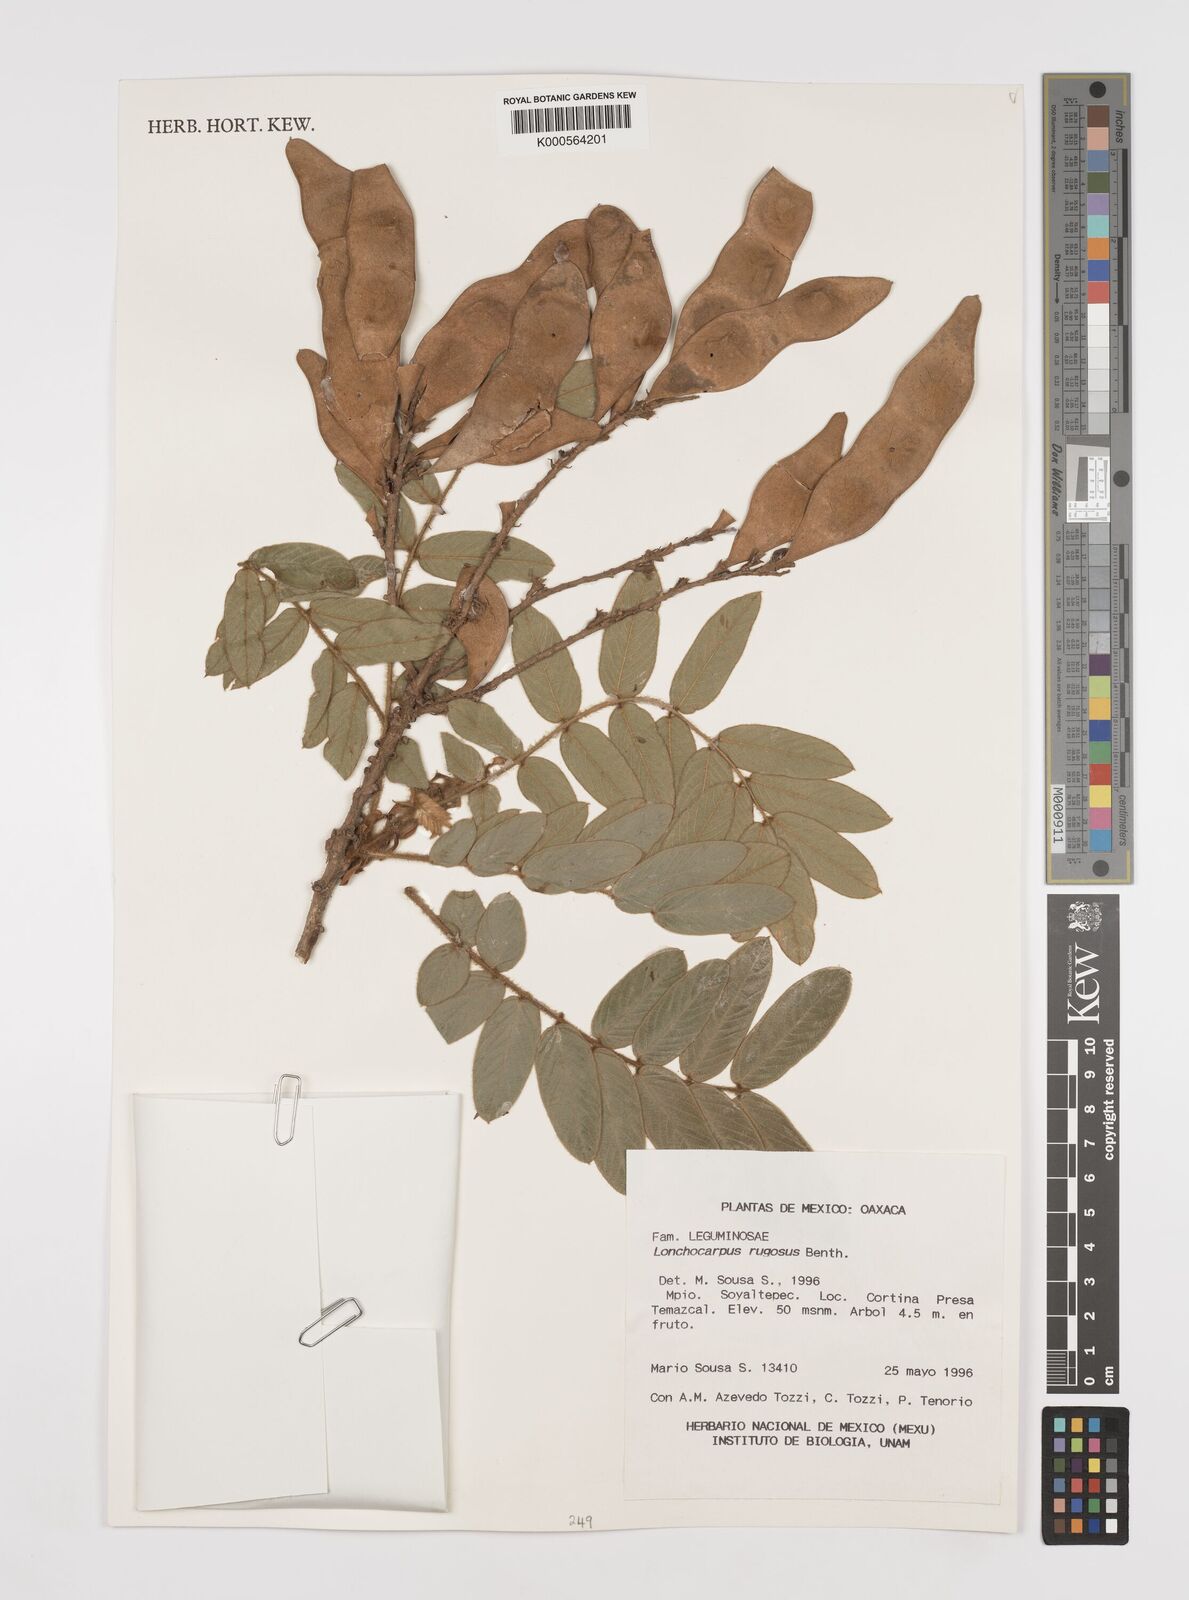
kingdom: Plantae
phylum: Tracheophyta
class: Magnoliopsida
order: Fabales
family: Fabaceae
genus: Lonchocarpus
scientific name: Lonchocarpus rugosus
